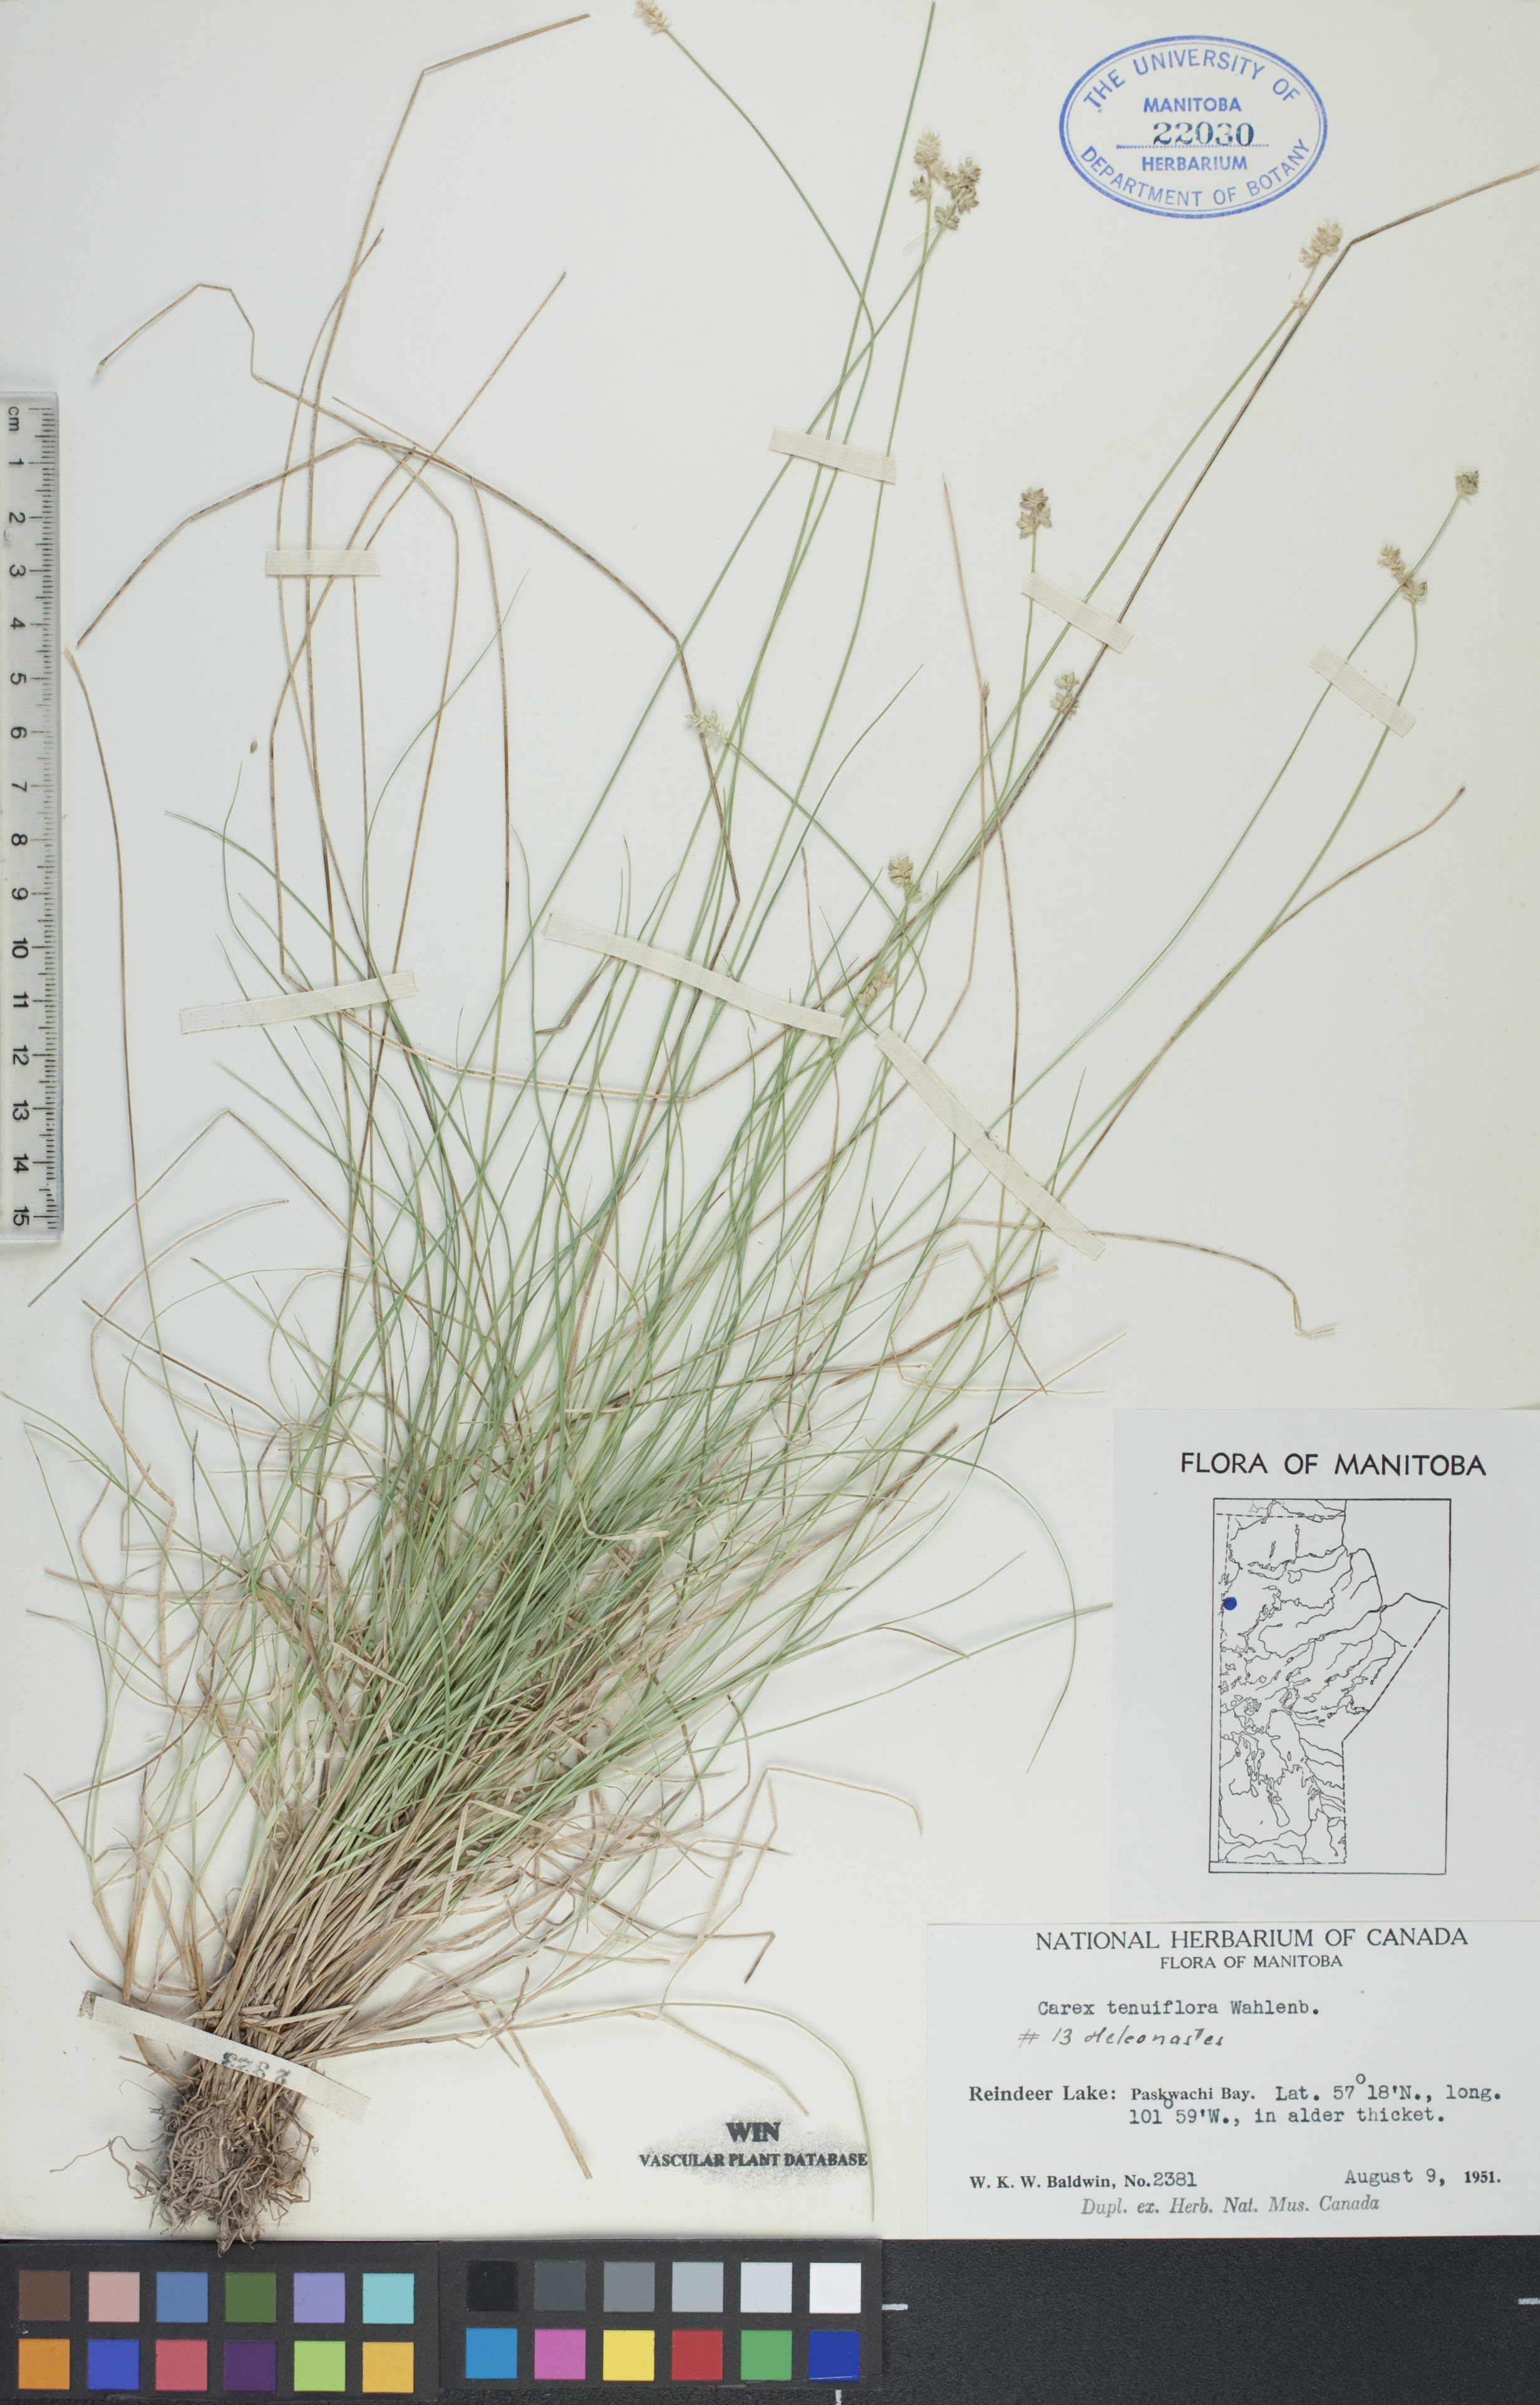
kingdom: Plantae
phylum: Tracheophyta
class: Liliopsida
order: Poales
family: Cyperaceae
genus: Carex
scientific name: Carex tenuiflora
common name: Sparse-flowered sedge
